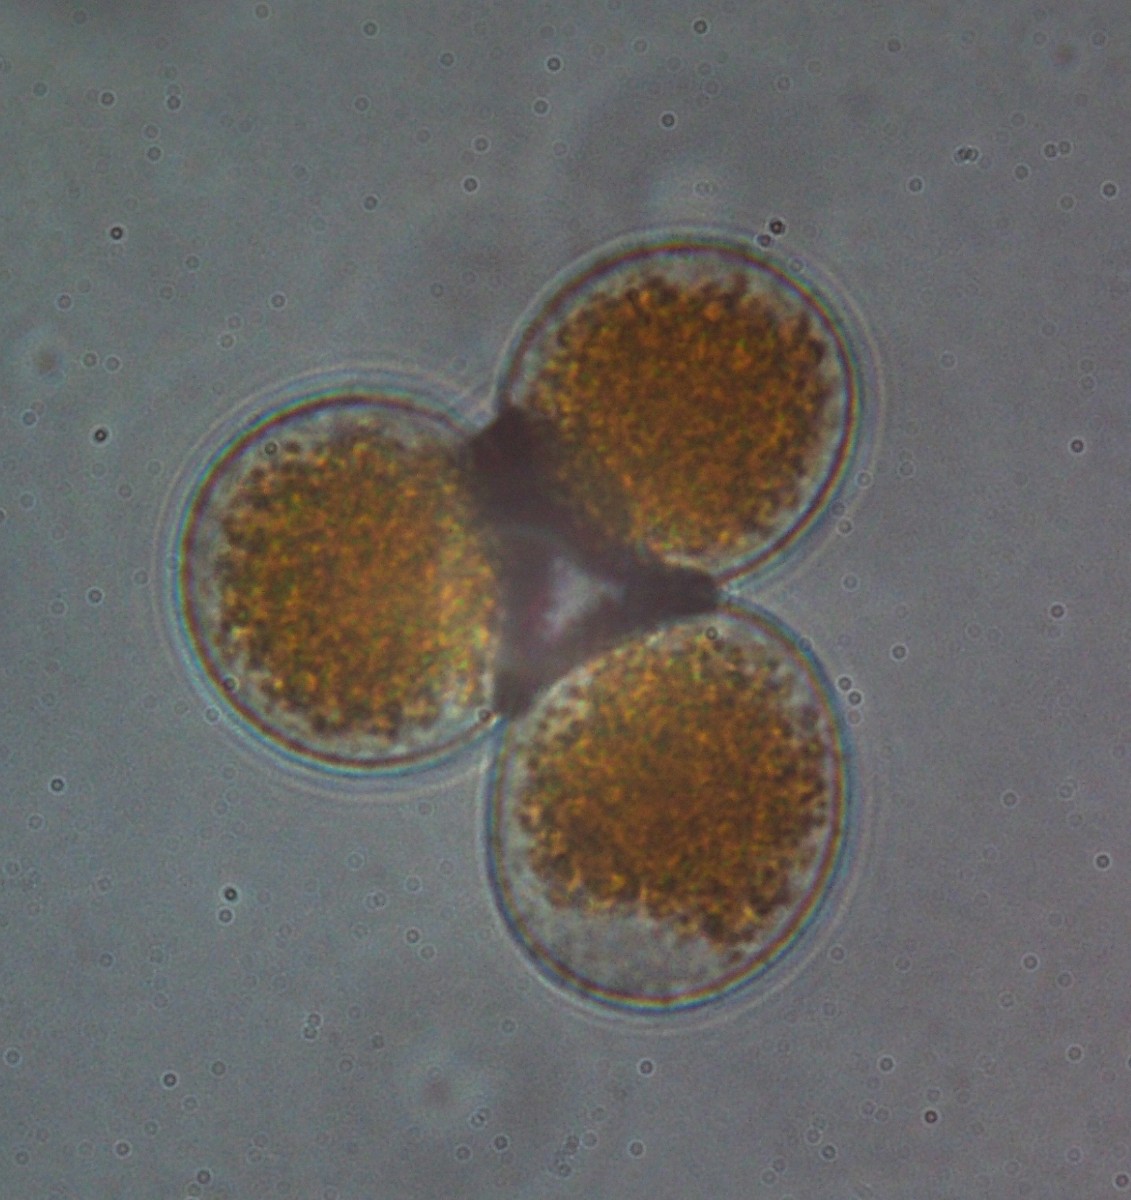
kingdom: Fungi
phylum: Basidiomycota
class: Pucciniomycetes
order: Pucciniales
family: Pucciniaceae
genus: Puccinia
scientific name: Puccinia coronata
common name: Crown rust
